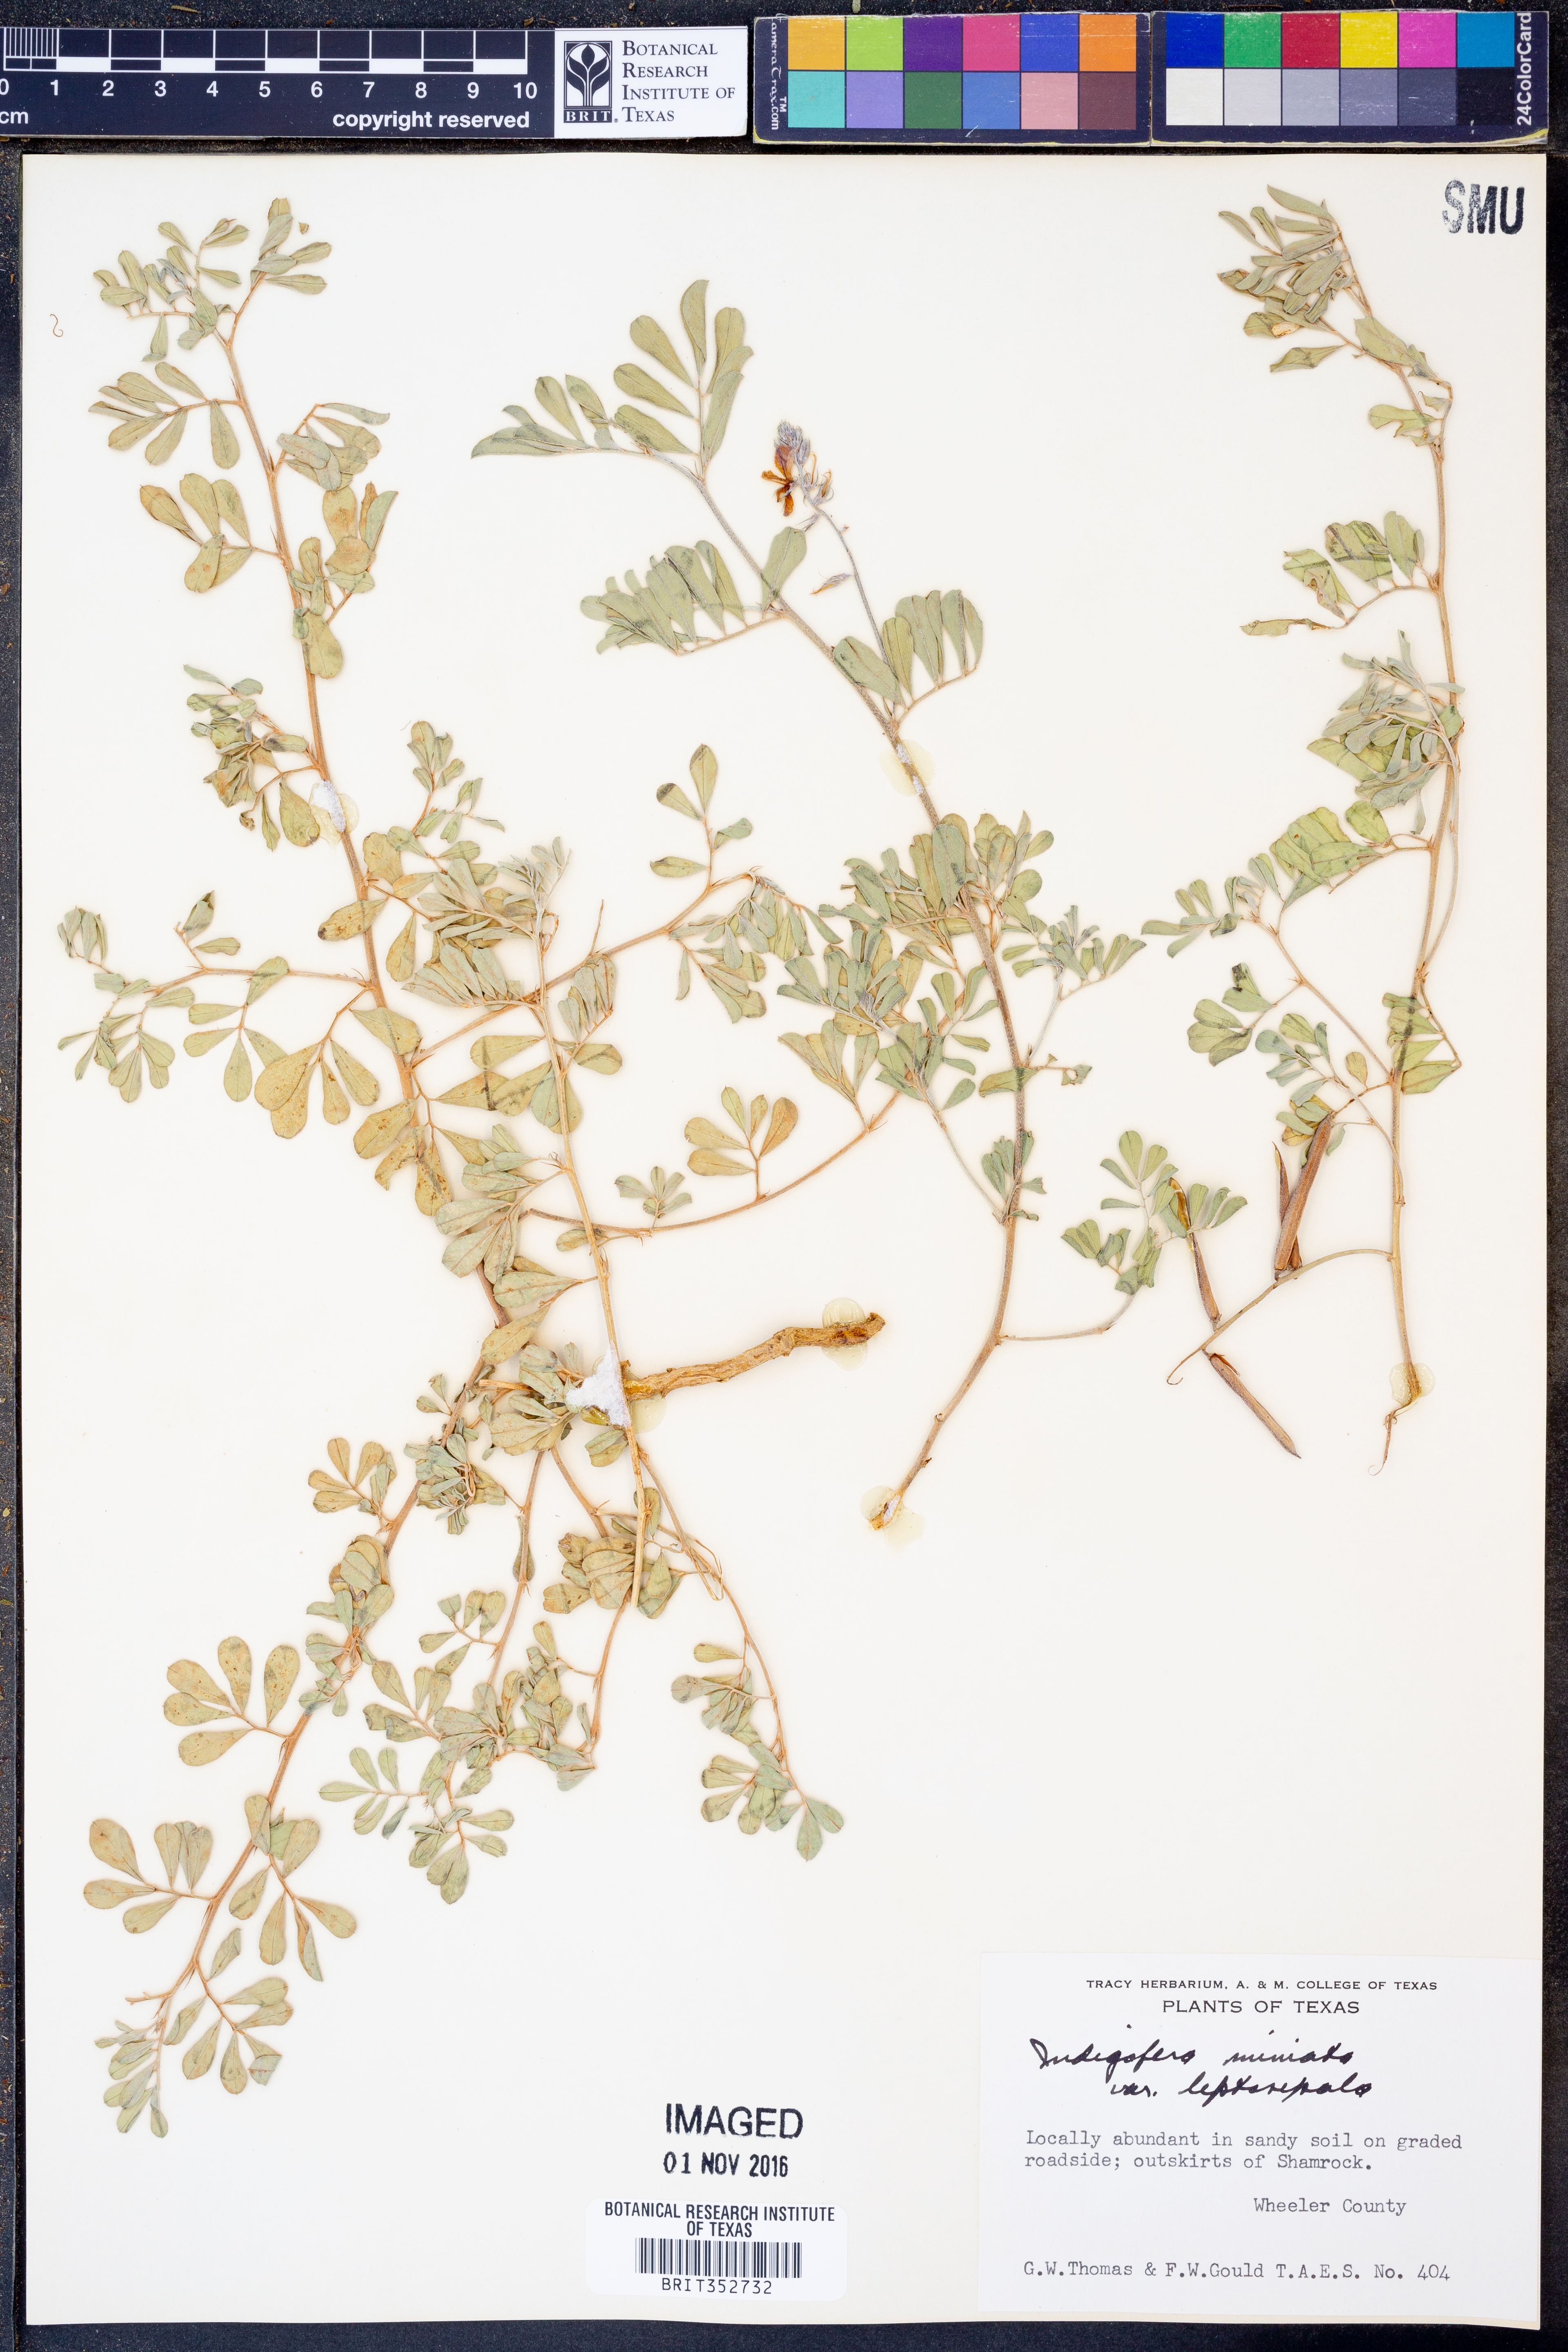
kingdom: Plantae
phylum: Tracheophyta
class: Magnoliopsida
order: Fabales
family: Fabaceae
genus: Indigofera
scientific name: Indigofera miniata
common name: Coast indigo
